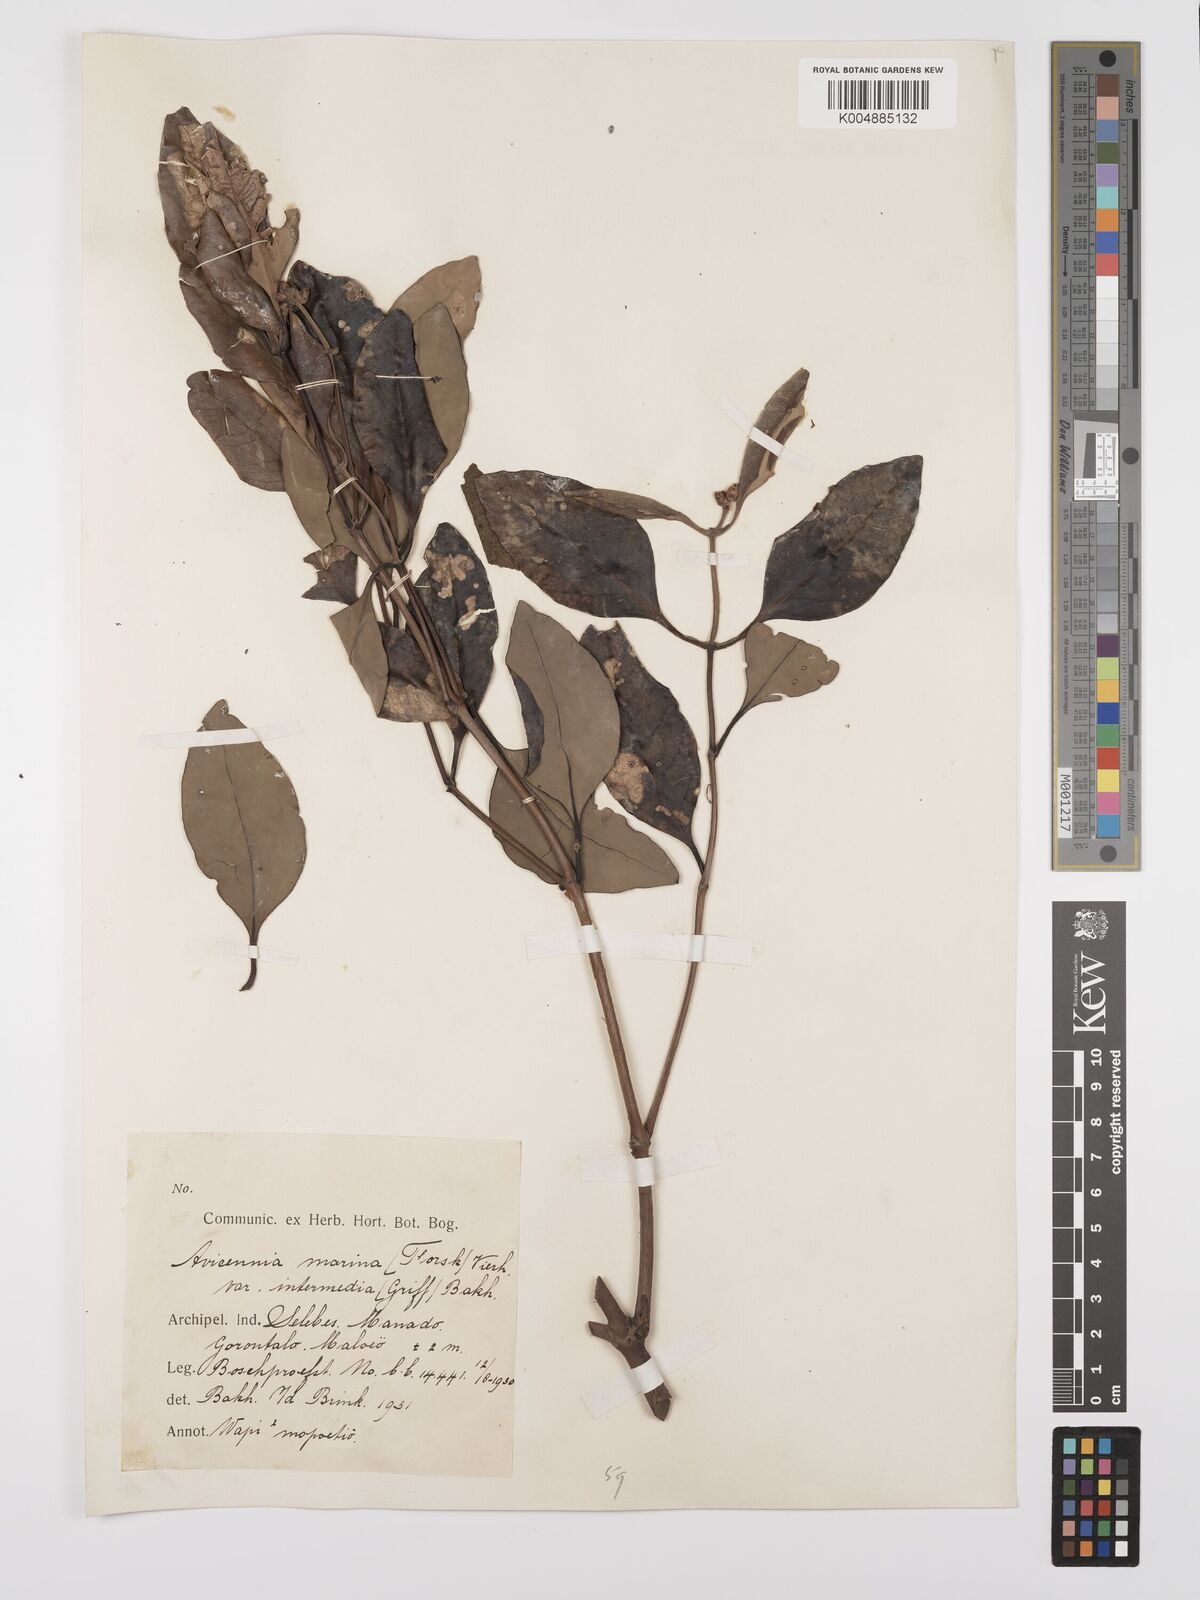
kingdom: Plantae
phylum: Tracheophyta
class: Magnoliopsida
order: Lamiales
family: Acanthaceae
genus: Avicennia
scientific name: Avicennia marina
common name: Gray mangrove
